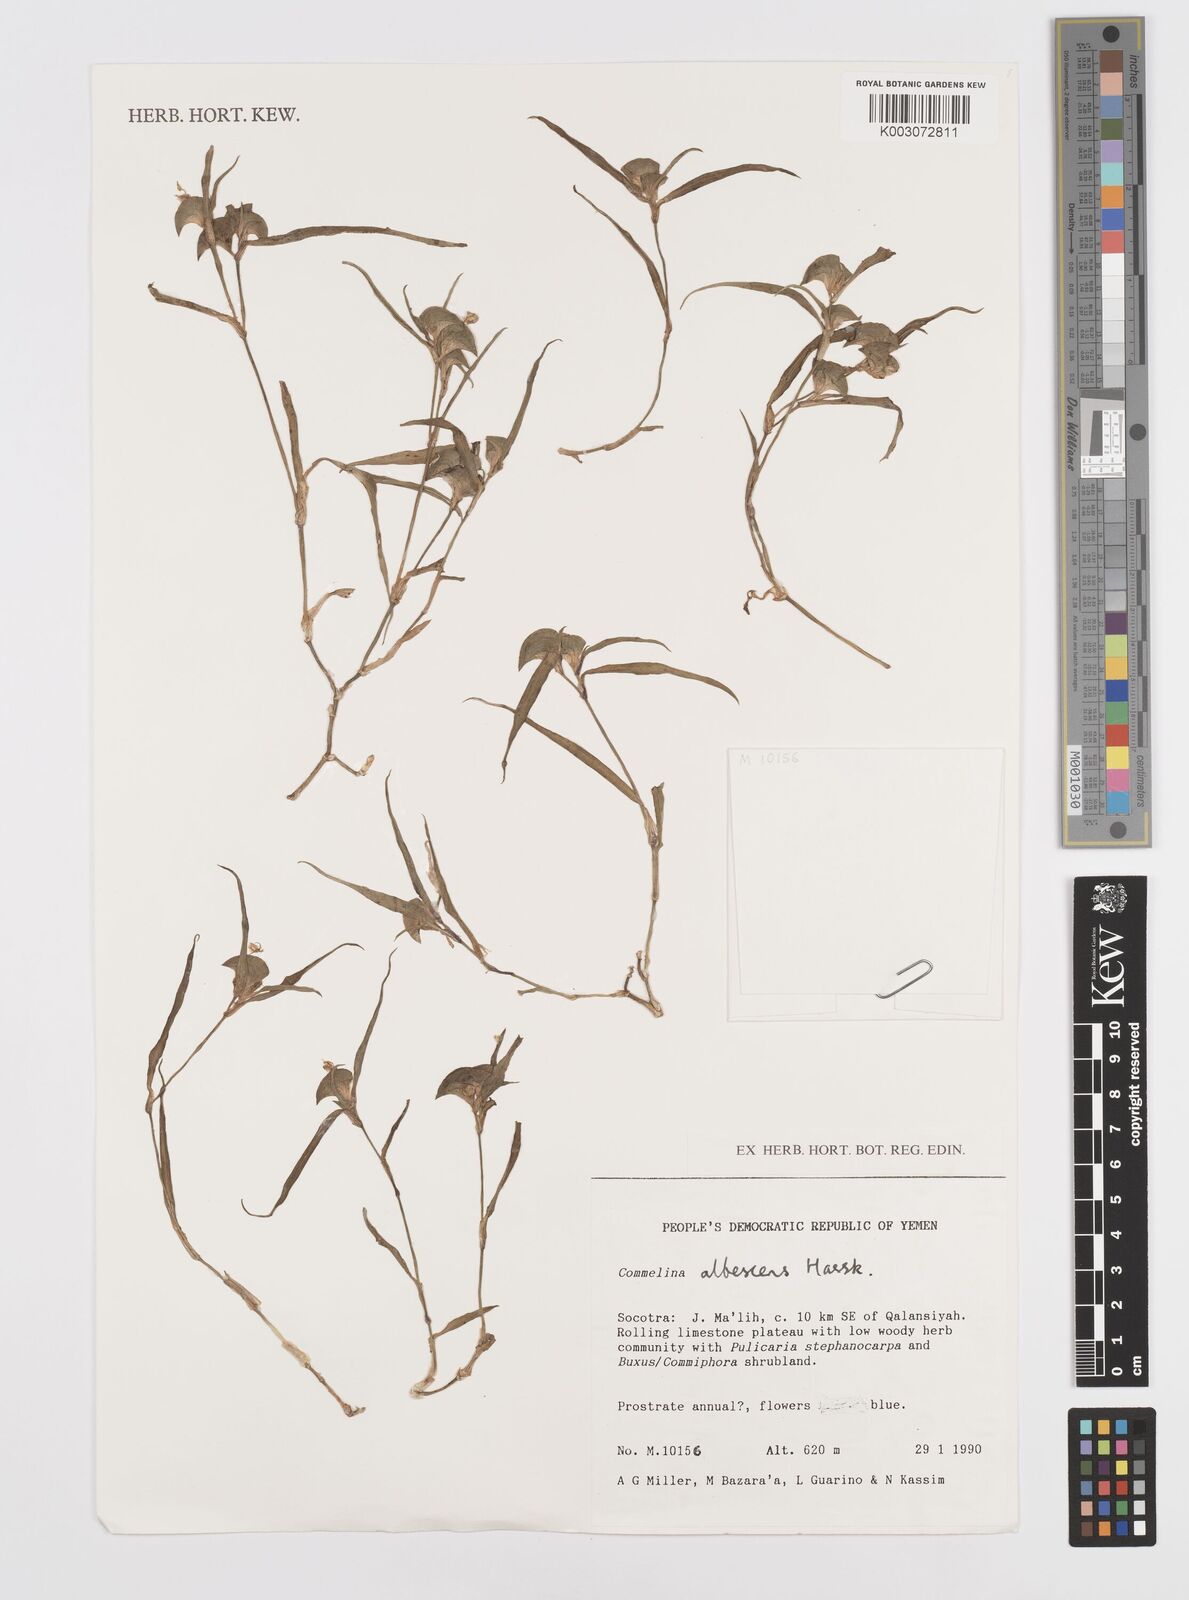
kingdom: Plantae
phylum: Tracheophyta
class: Liliopsida
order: Commelinales
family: Commelinaceae
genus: Commelina
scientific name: Commelina albescens
